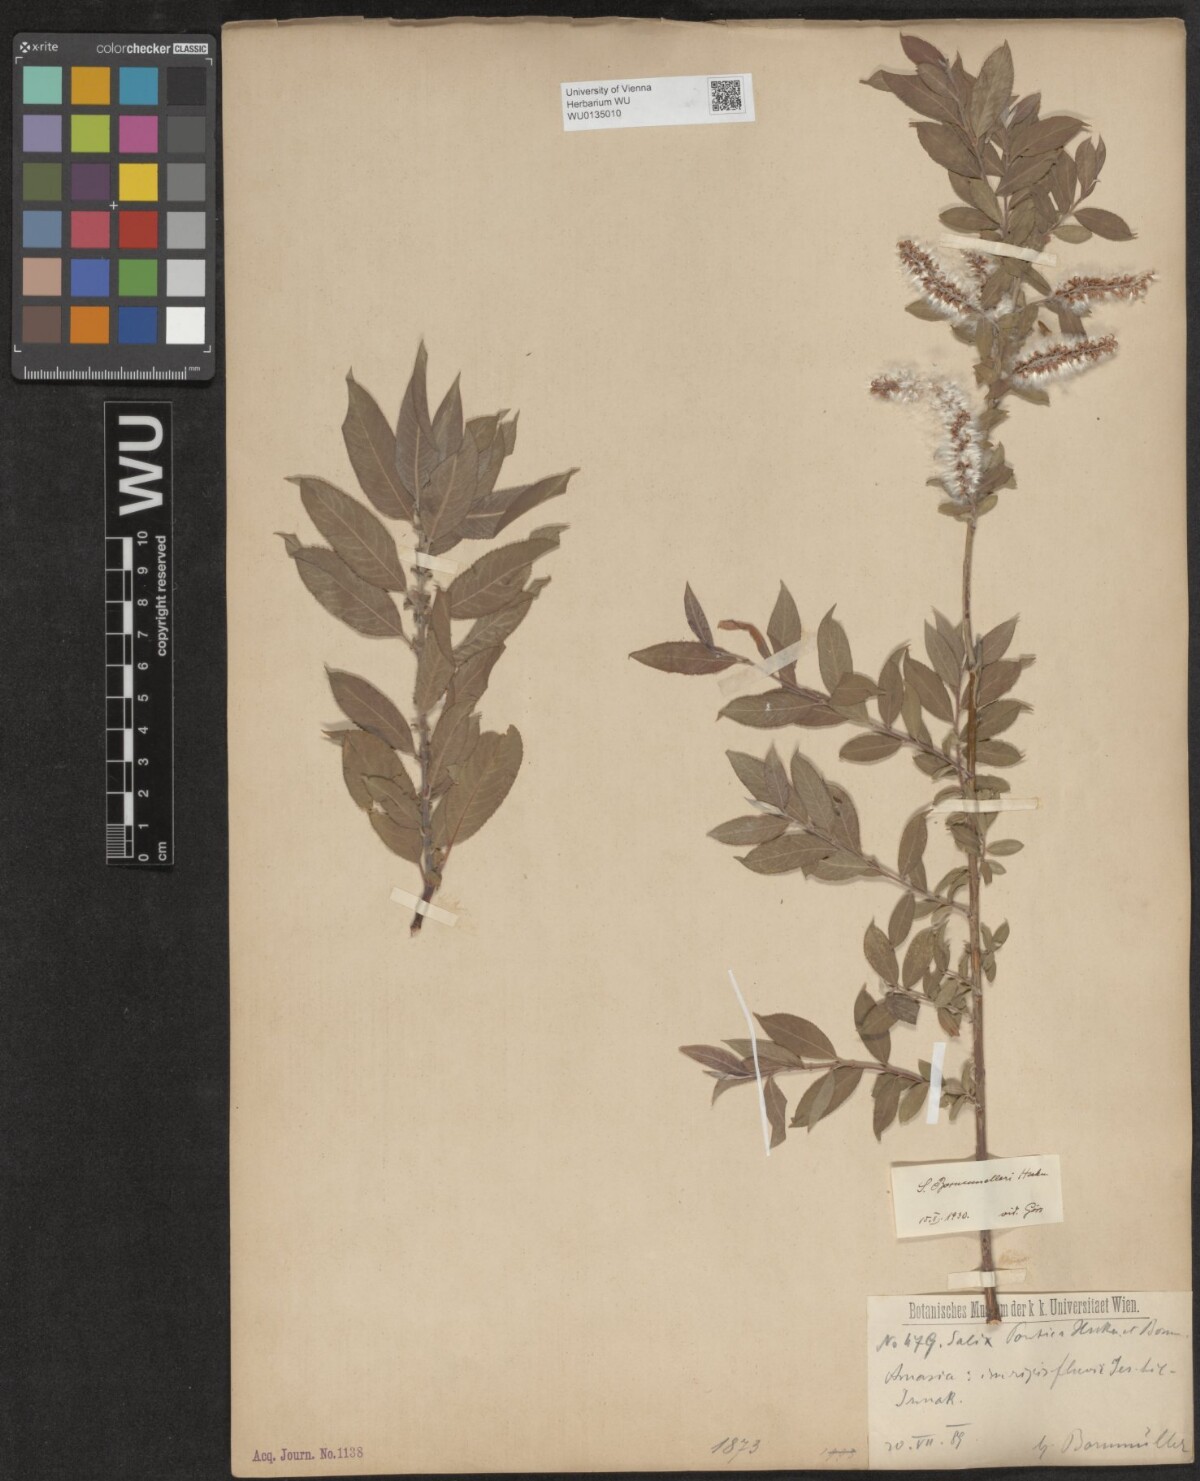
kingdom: Plantae
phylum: Tracheophyta
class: Magnoliopsida
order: Malpighiales
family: Salicaceae
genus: Salix
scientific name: Salix triandra
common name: Almond willow
